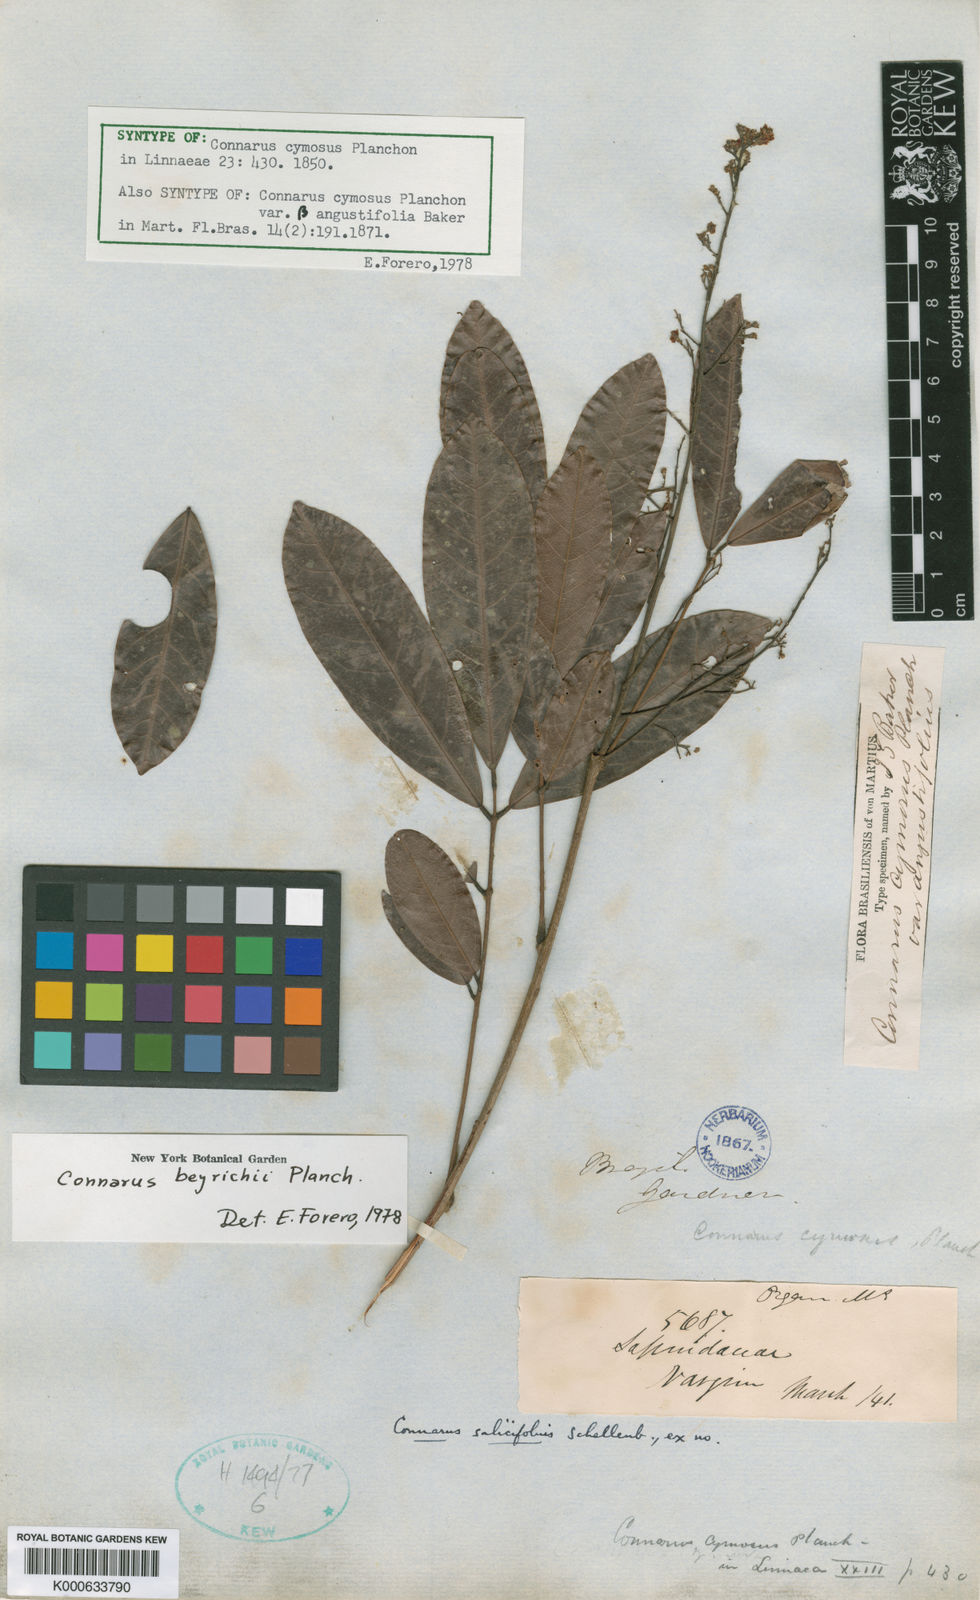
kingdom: Plantae
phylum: Tracheophyta
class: Magnoliopsida
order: Oxalidales
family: Connaraceae
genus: Connarus
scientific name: Connarus beyrichii
